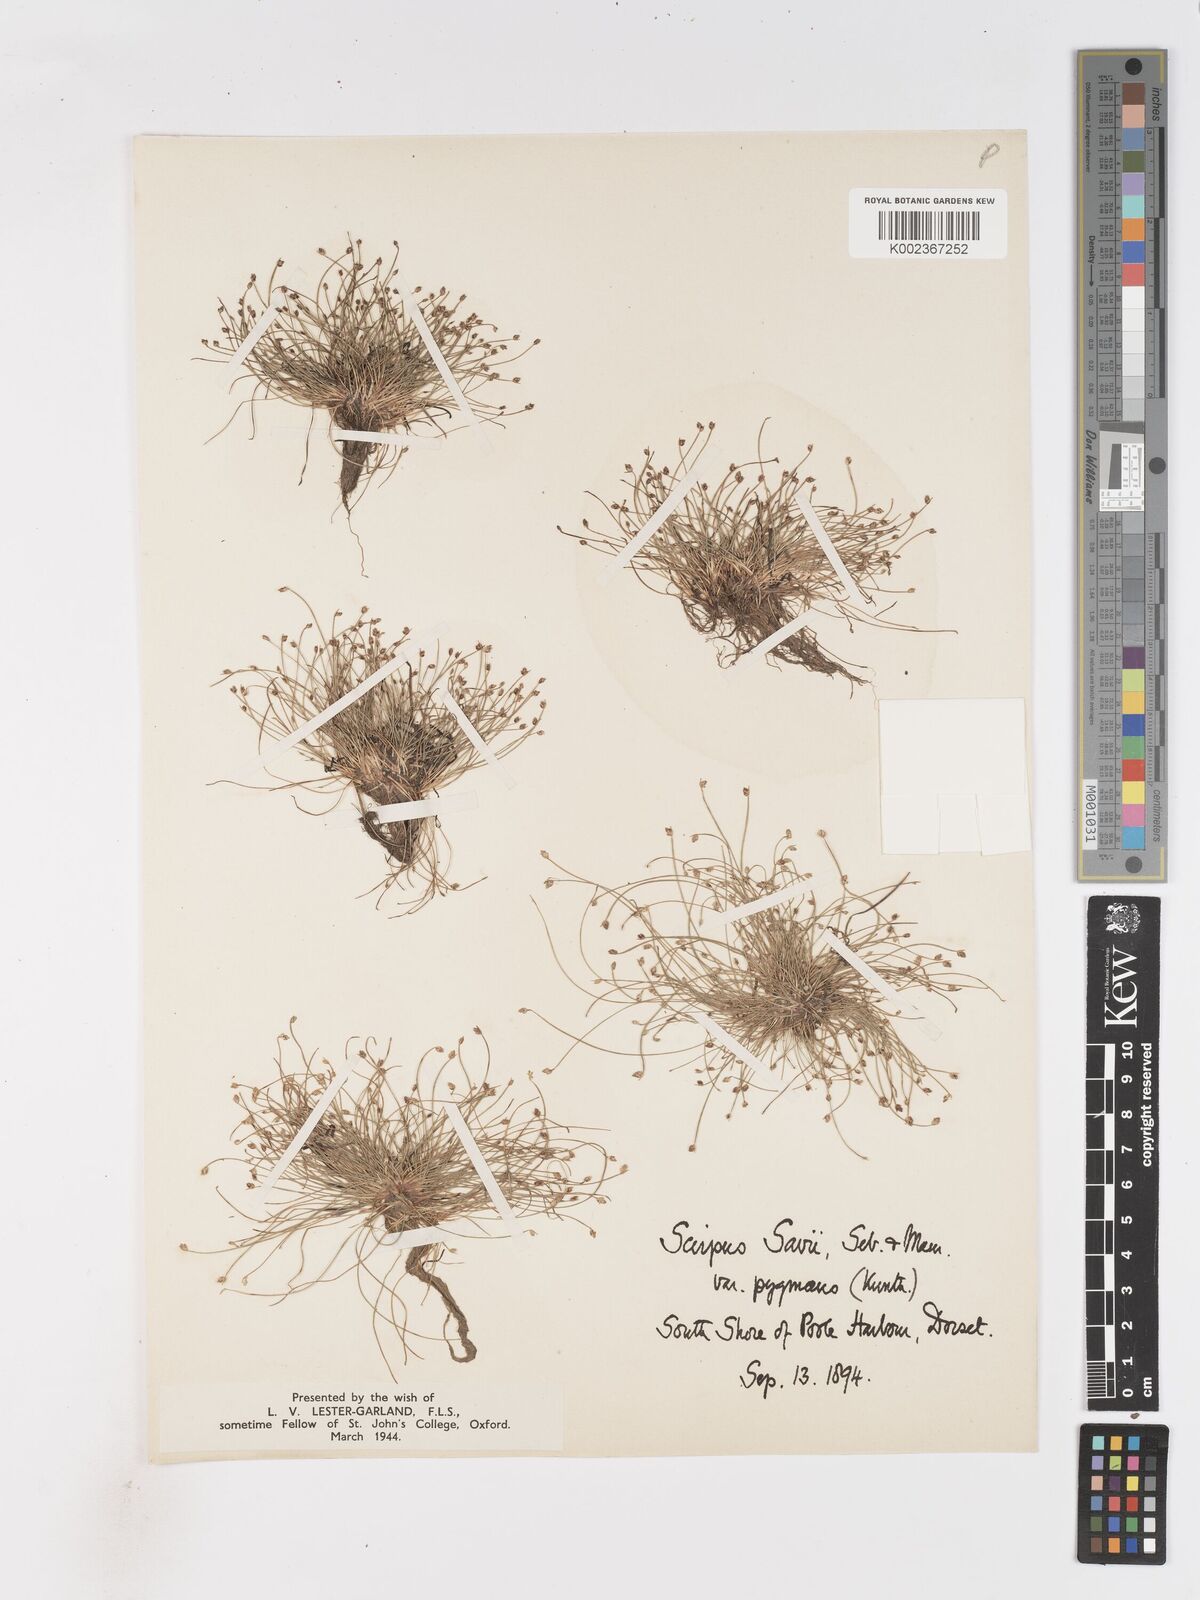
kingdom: Plantae
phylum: Tracheophyta
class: Liliopsida
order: Poales
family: Cyperaceae
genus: Isolepis
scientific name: Isolepis cernua
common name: Slender club-rush
